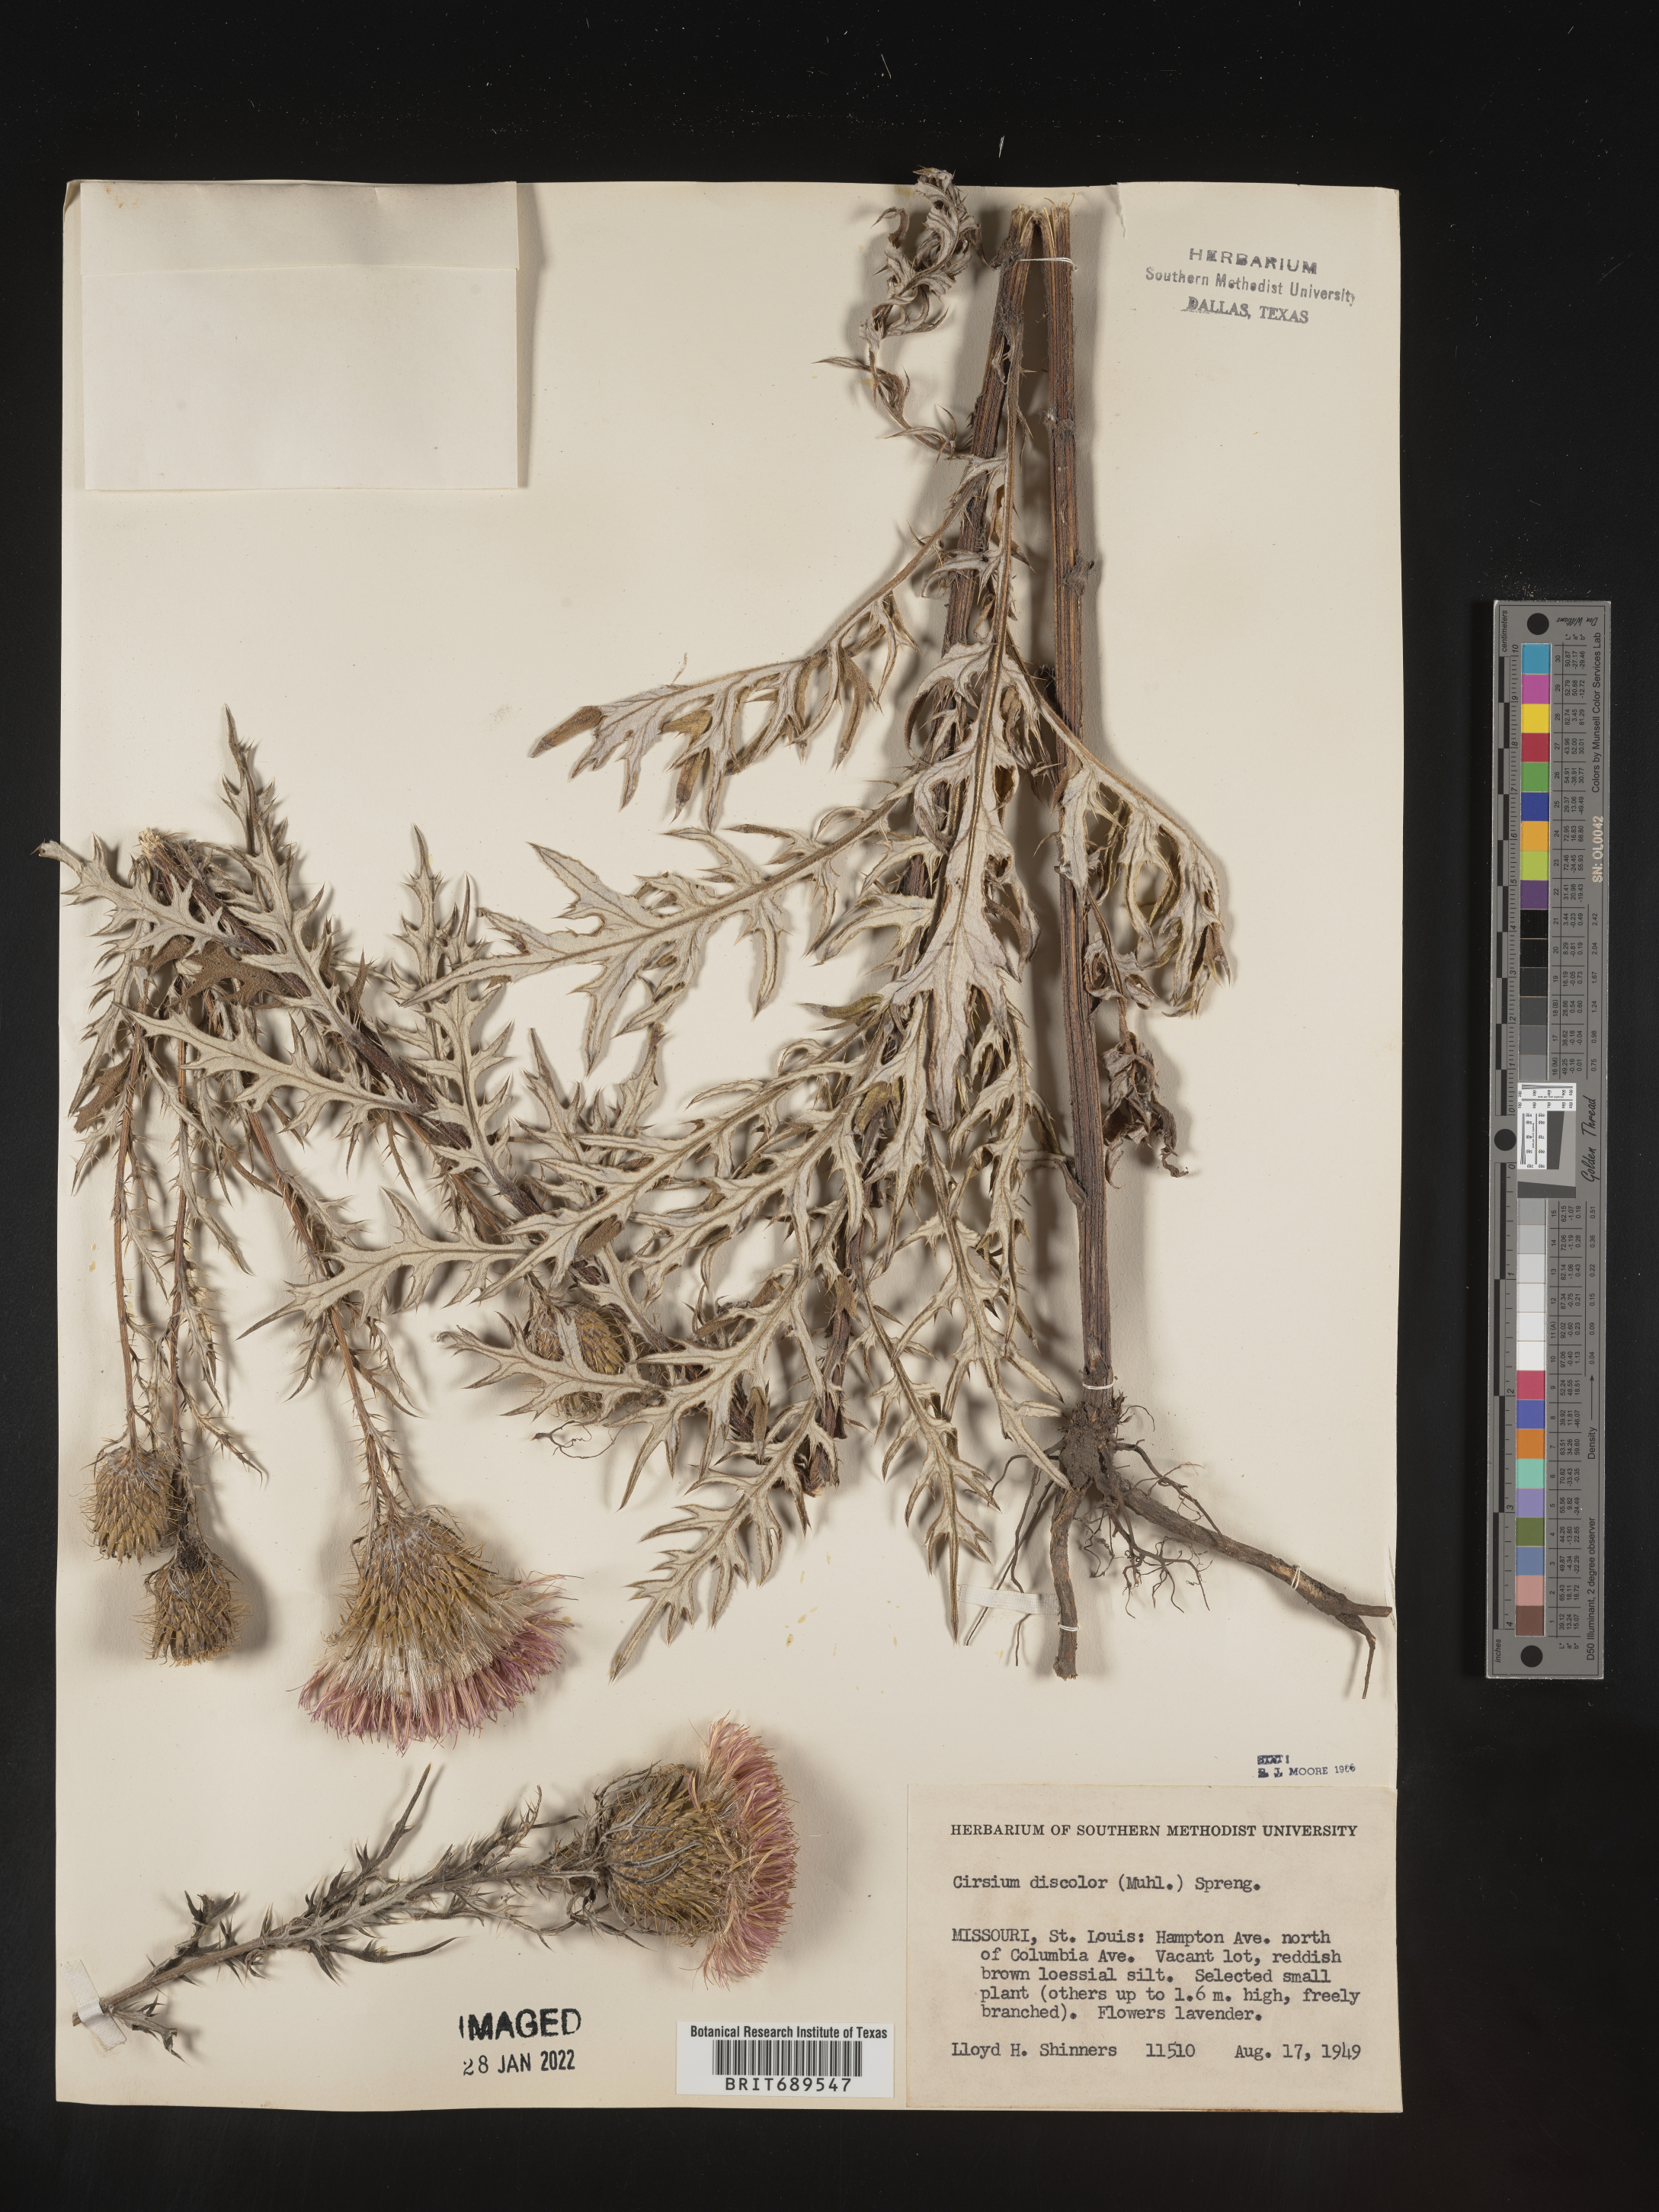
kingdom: Plantae
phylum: Tracheophyta
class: Magnoliopsida
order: Asterales
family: Asteraceae
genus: Cirsium
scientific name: Cirsium discolor
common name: Field thistle
